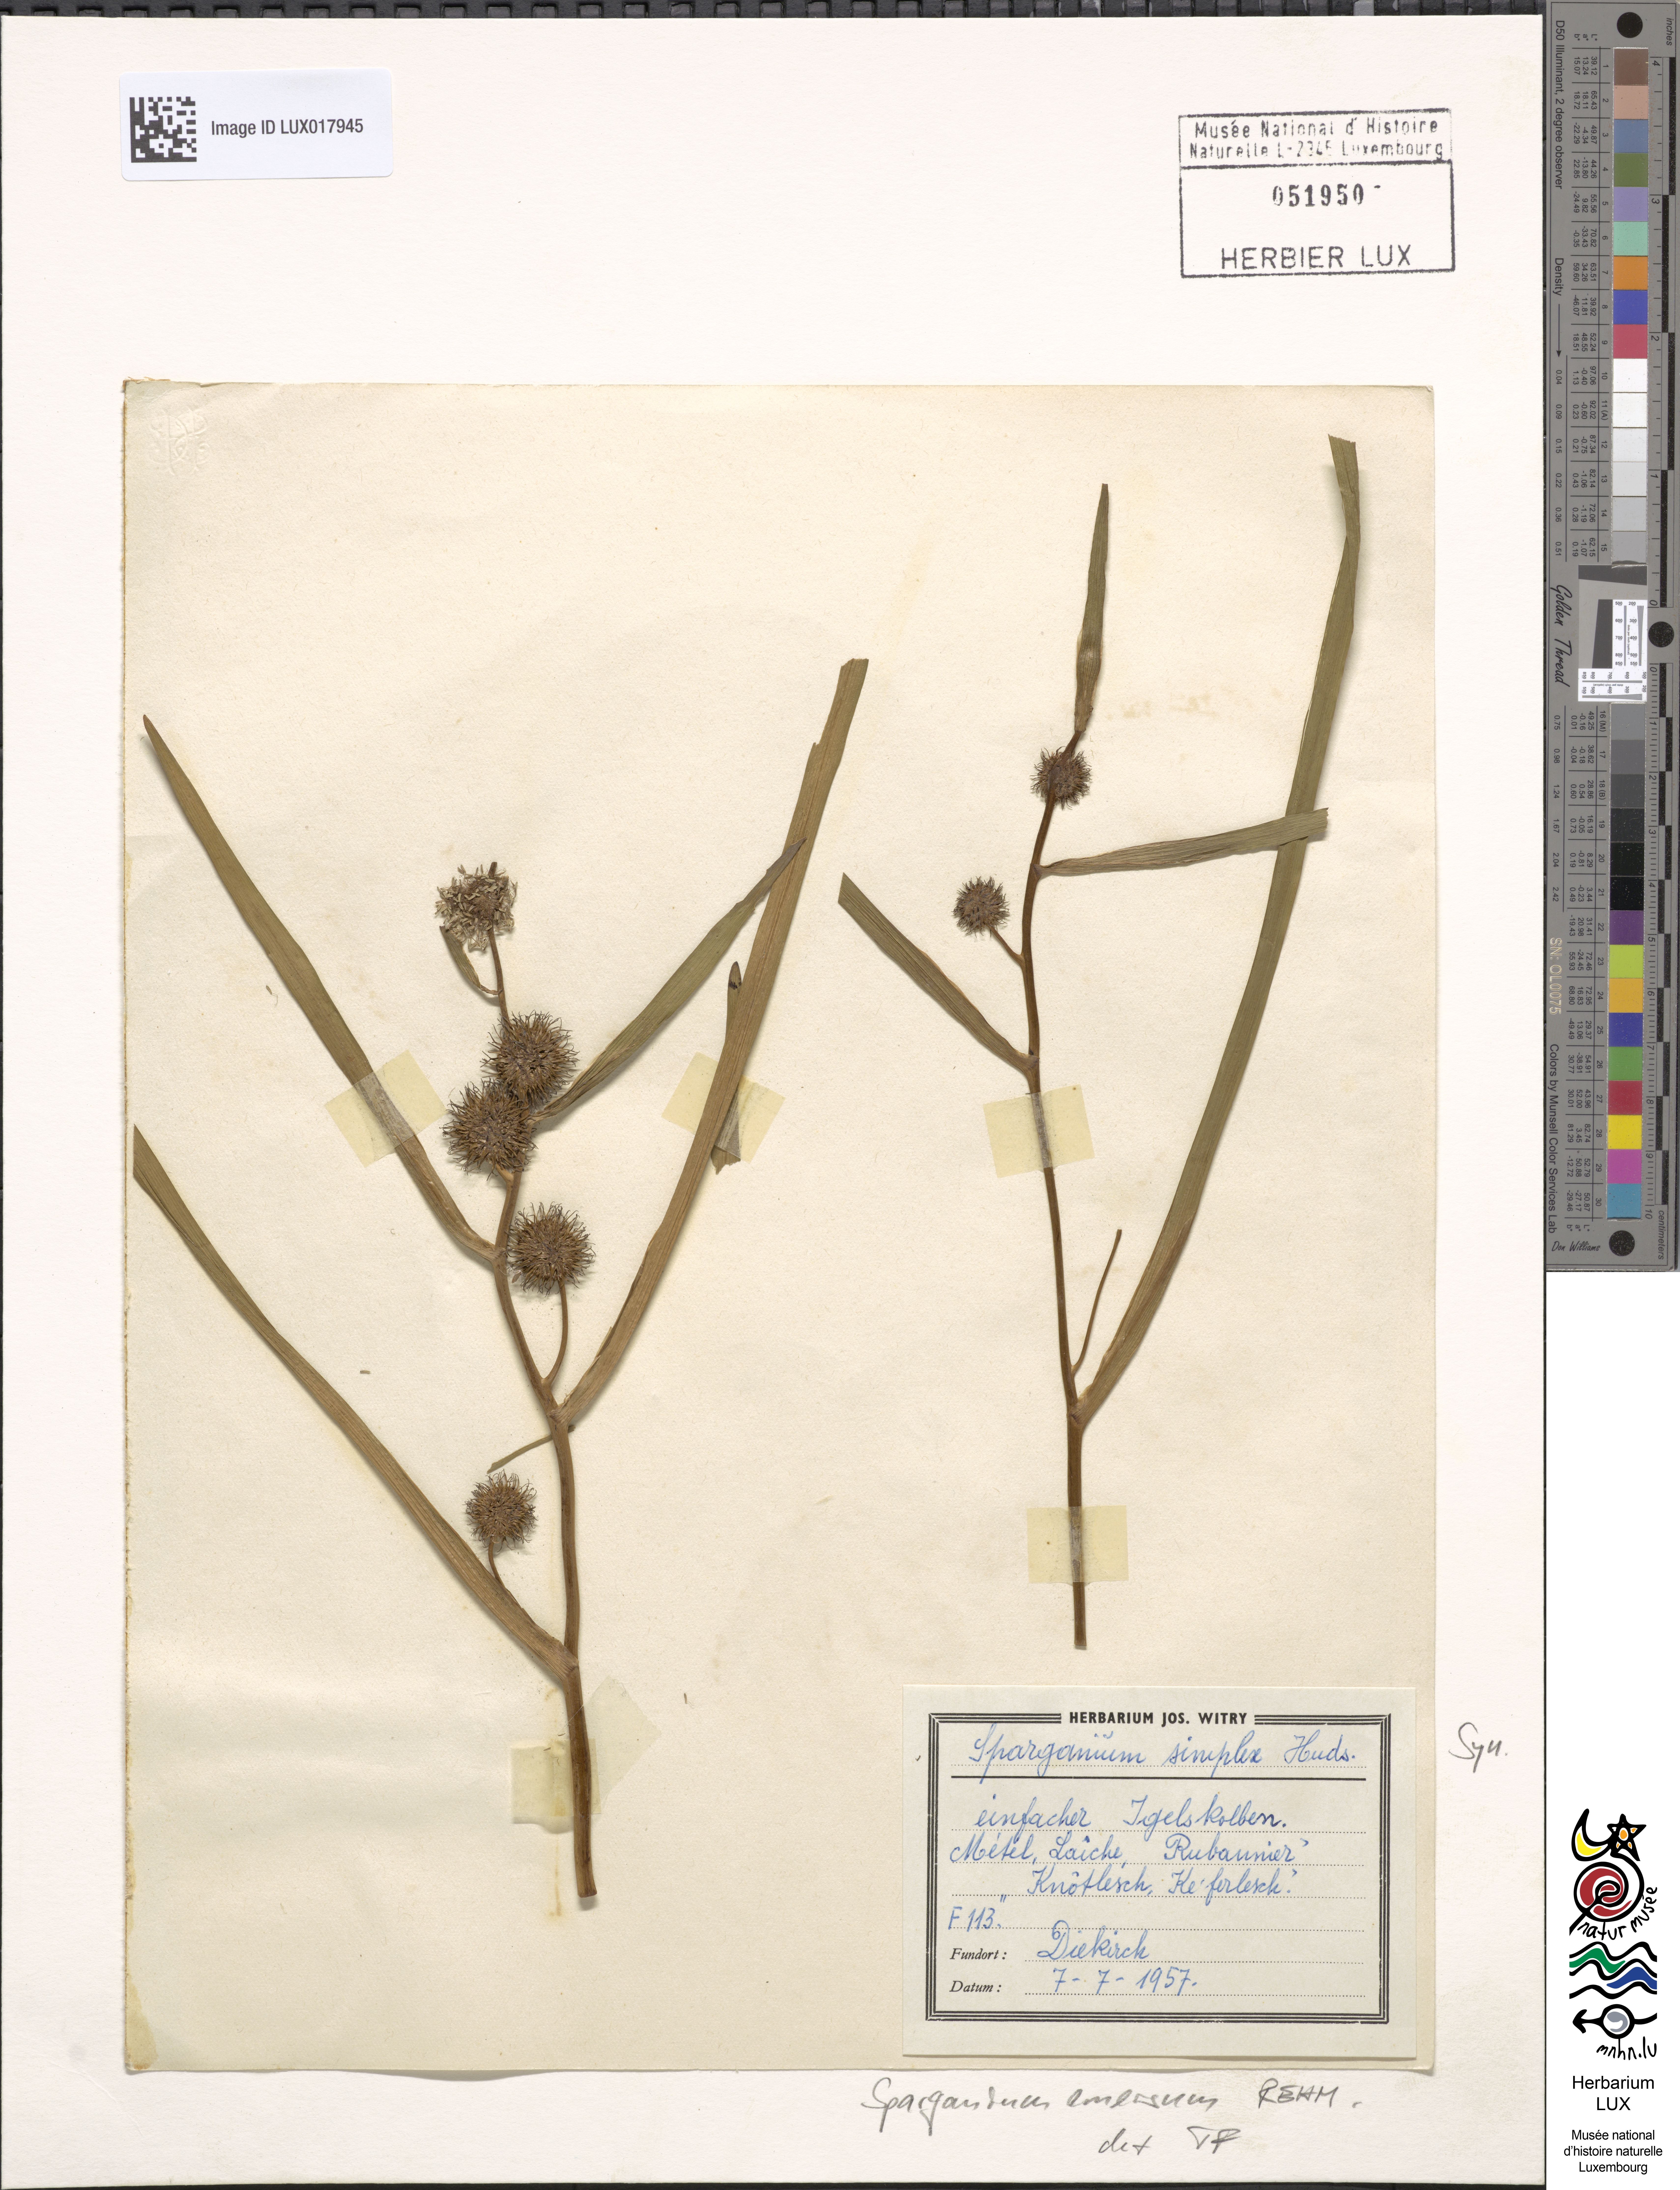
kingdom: Plantae
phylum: Tracheophyta
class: Liliopsida
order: Poales
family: Typhaceae
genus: Sparganium
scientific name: Sparganium emersum
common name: Unbranched bur-reed
